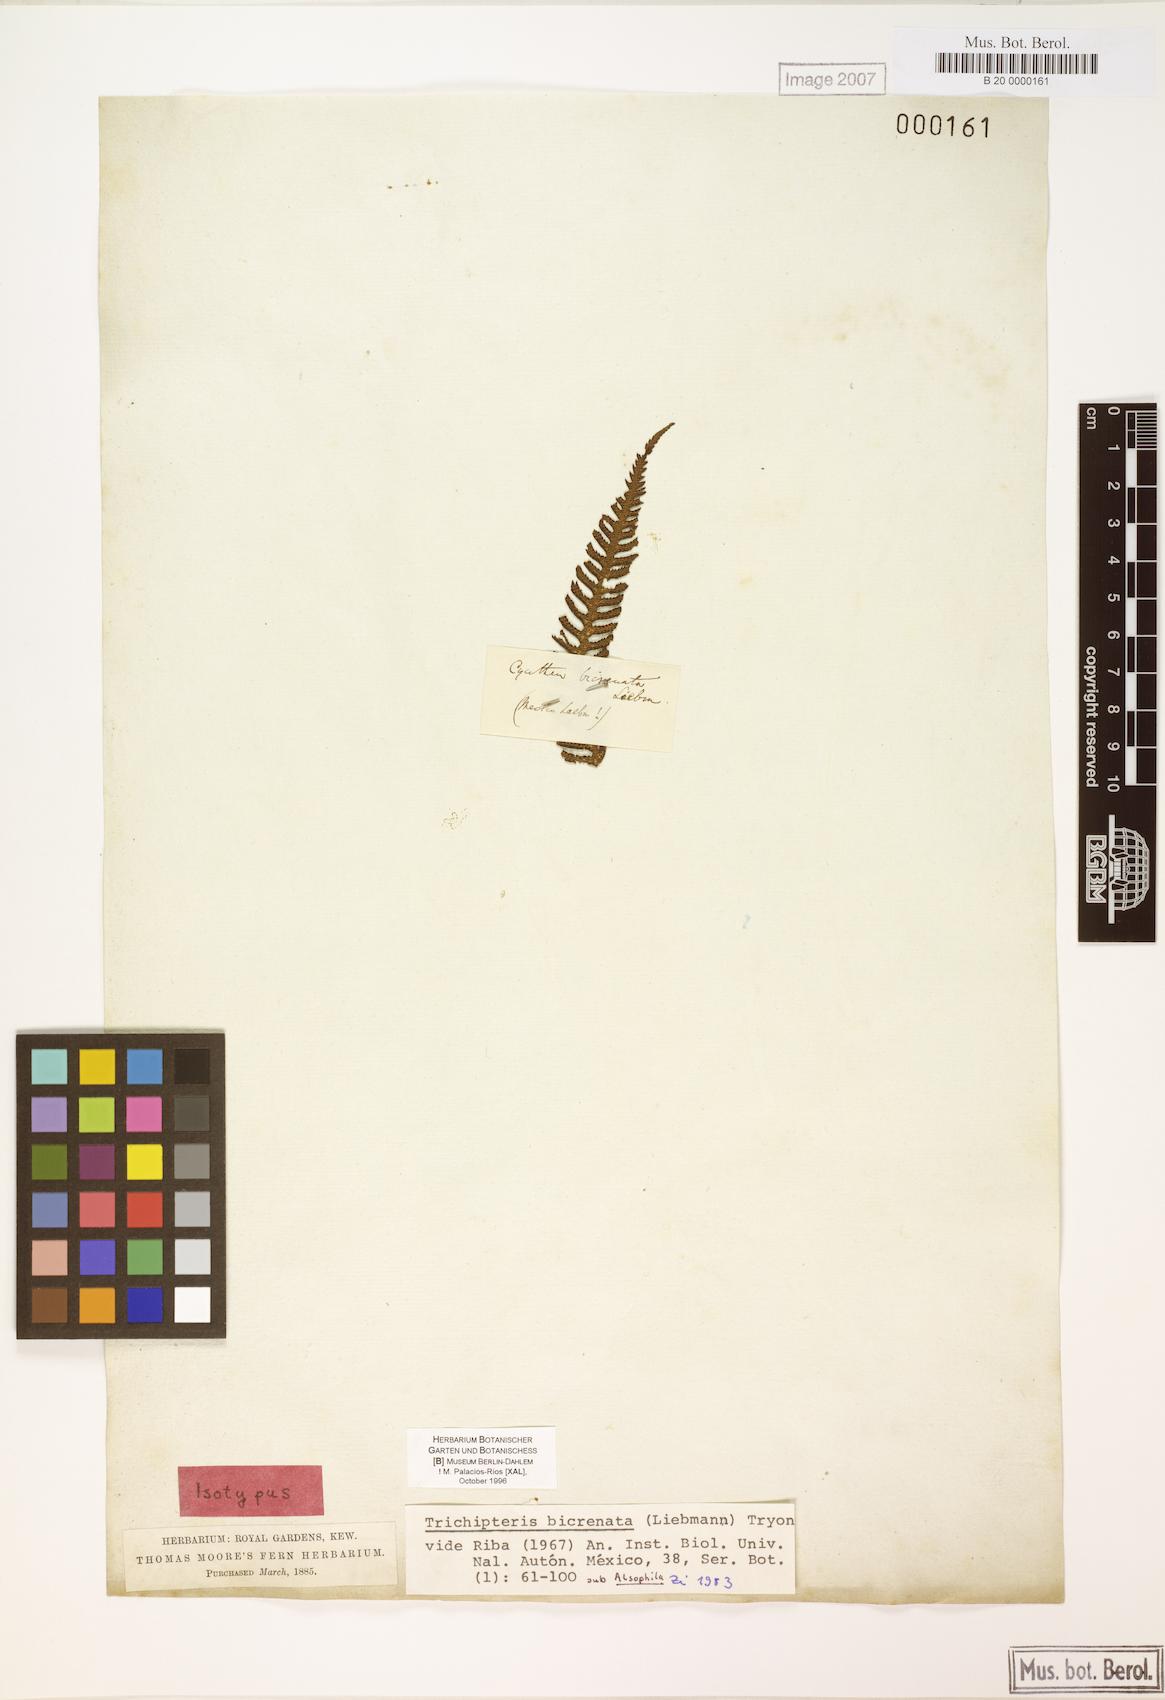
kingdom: Plantae
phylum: Tracheophyta
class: Polypodiopsida
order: Cyatheales
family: Cyatheaceae
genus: Cyathea
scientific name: Cyathea bicrenata
